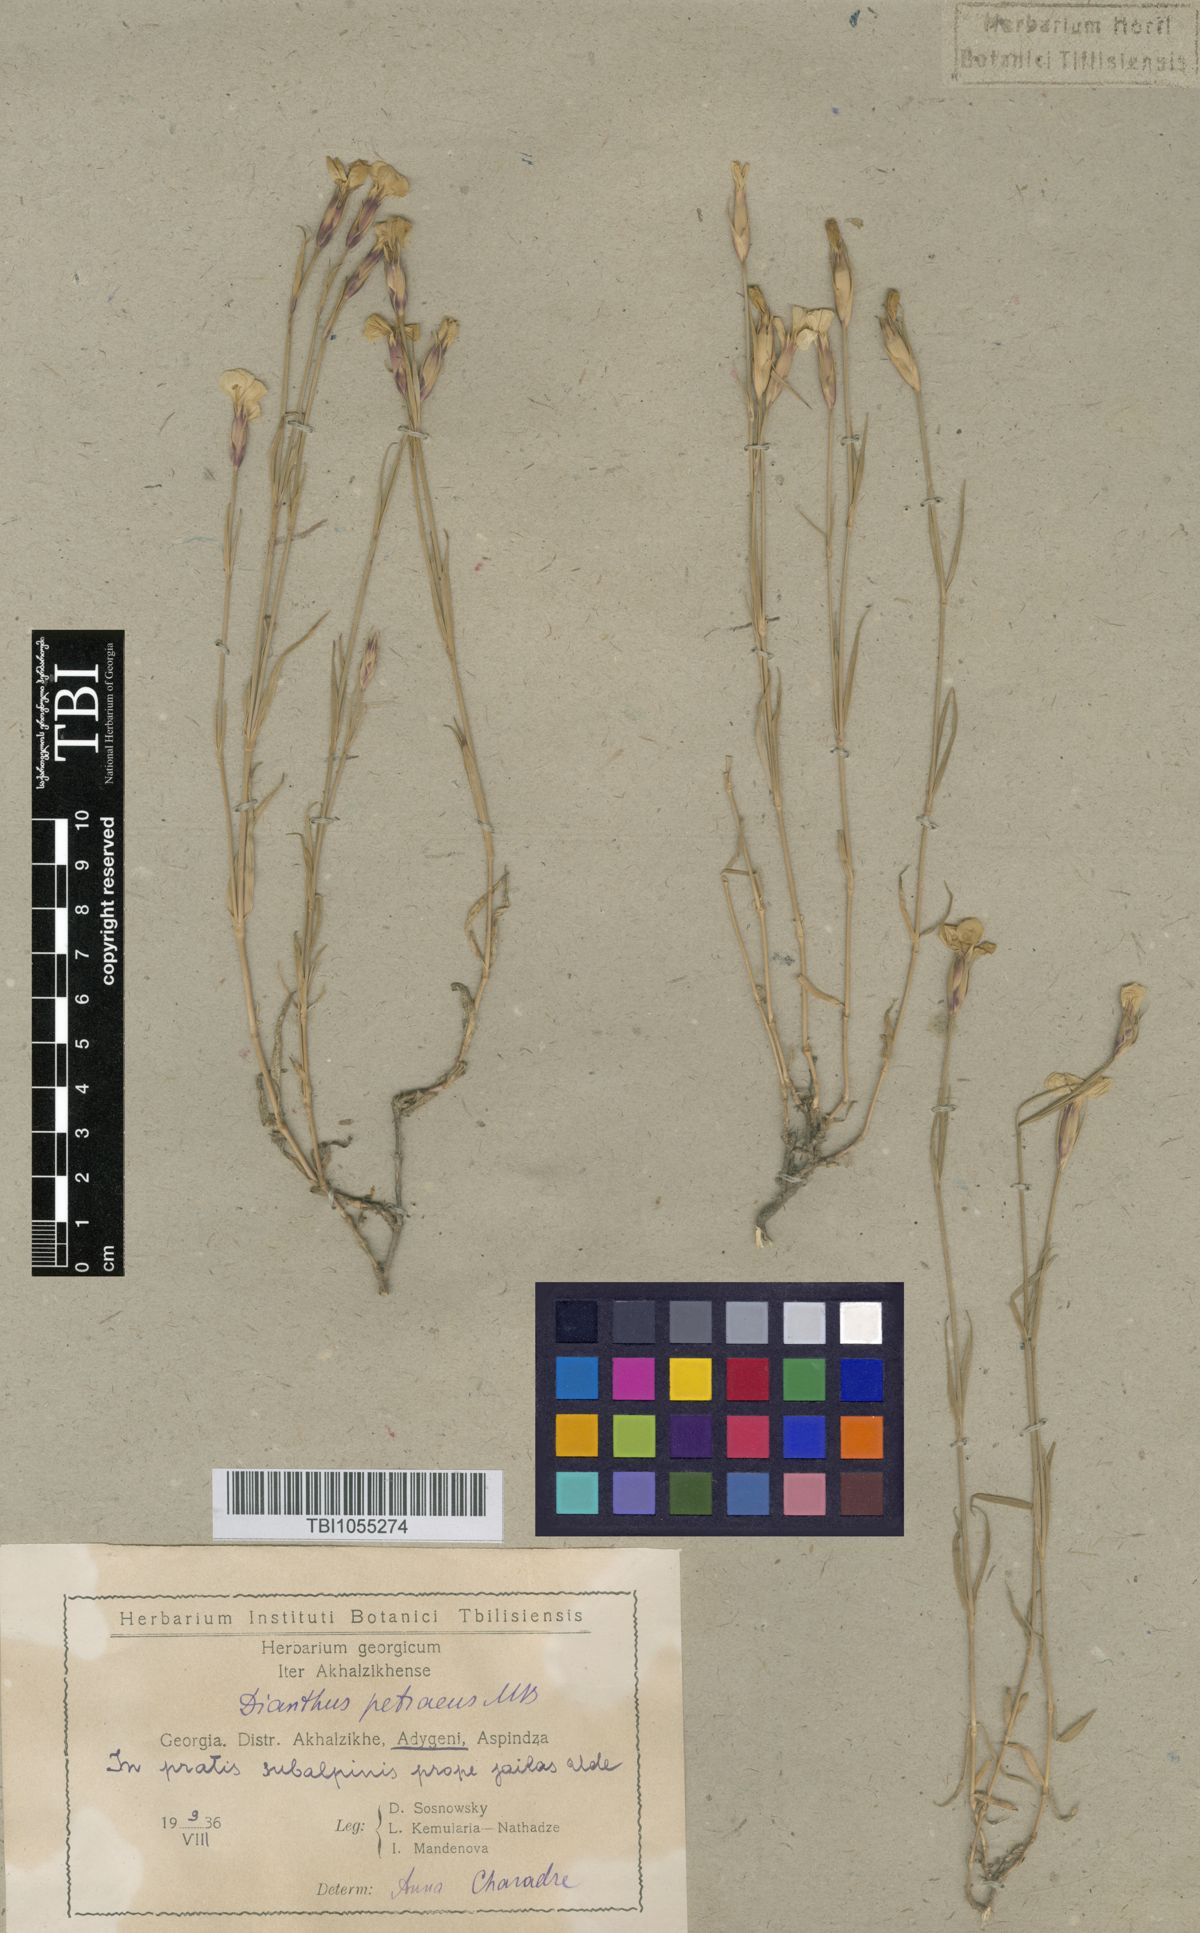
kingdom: Plantae
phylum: Tracheophyta
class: Magnoliopsida
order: Caryophyllales
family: Caryophyllaceae
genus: Dianthus
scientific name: Dianthus cretaceus
